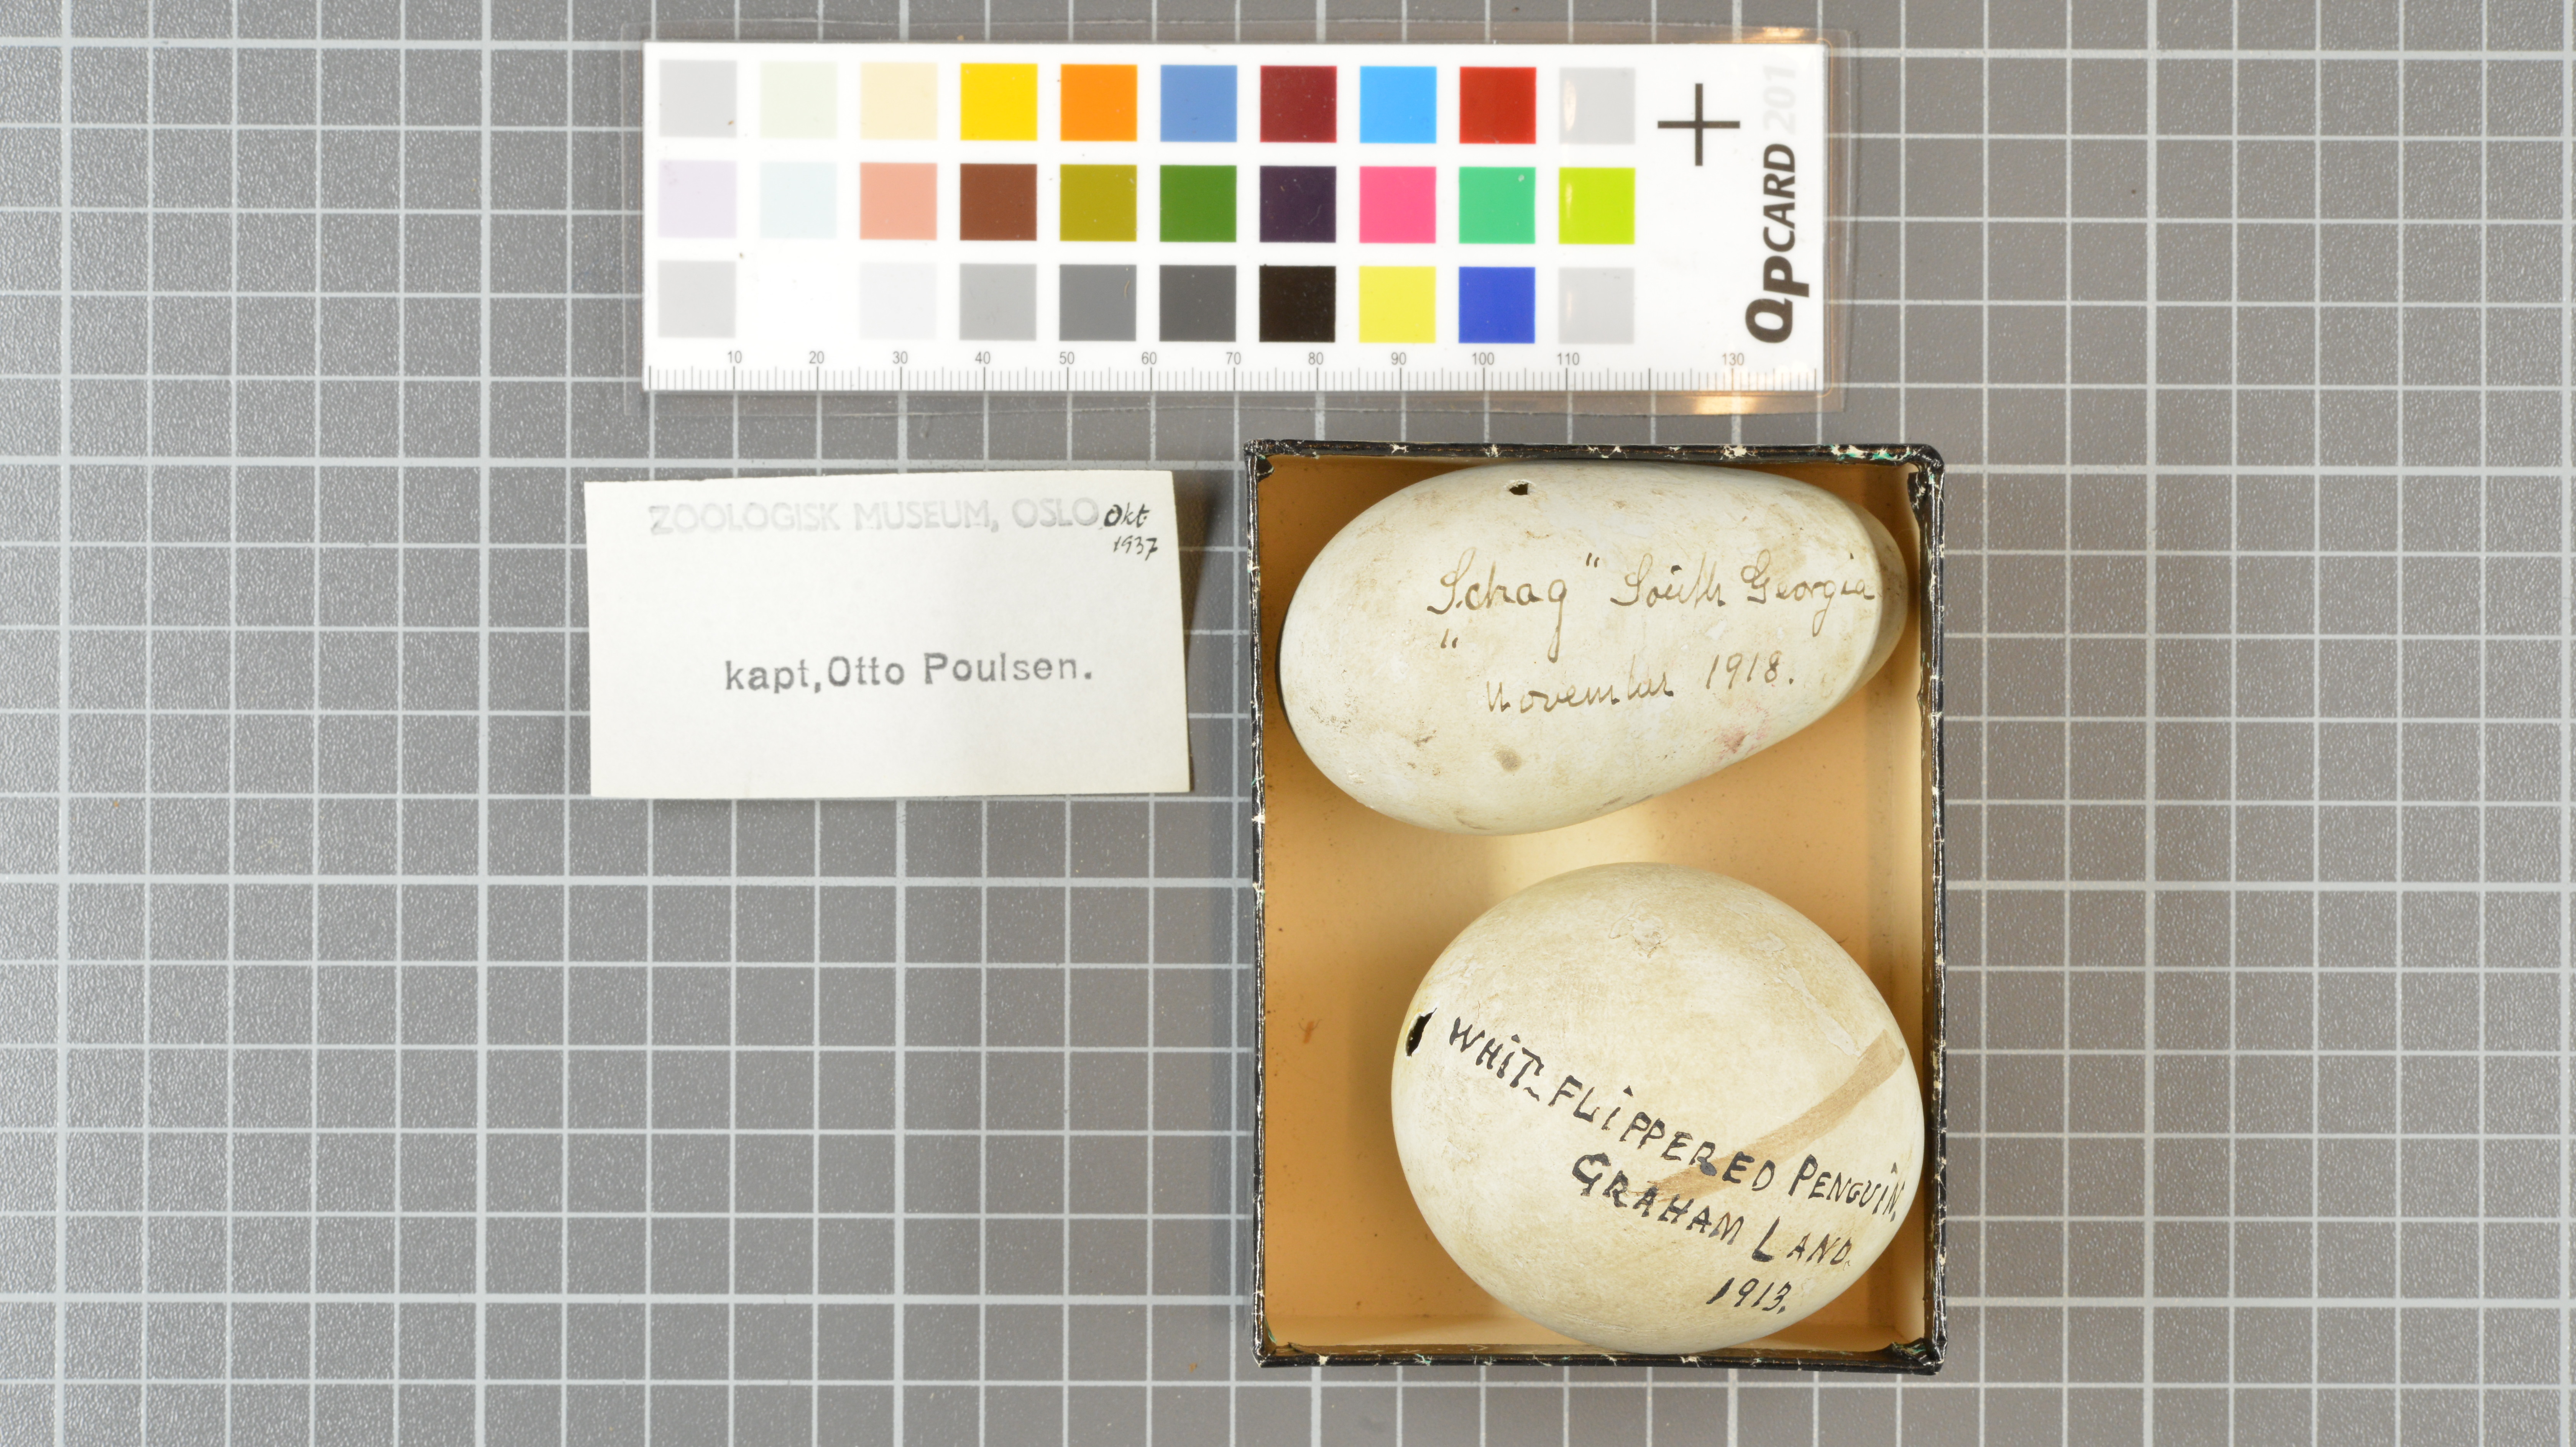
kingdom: Animalia
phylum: Chordata
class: Aves
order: Sphenisciformes
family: Spheniscidae
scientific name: Spheniscidae
